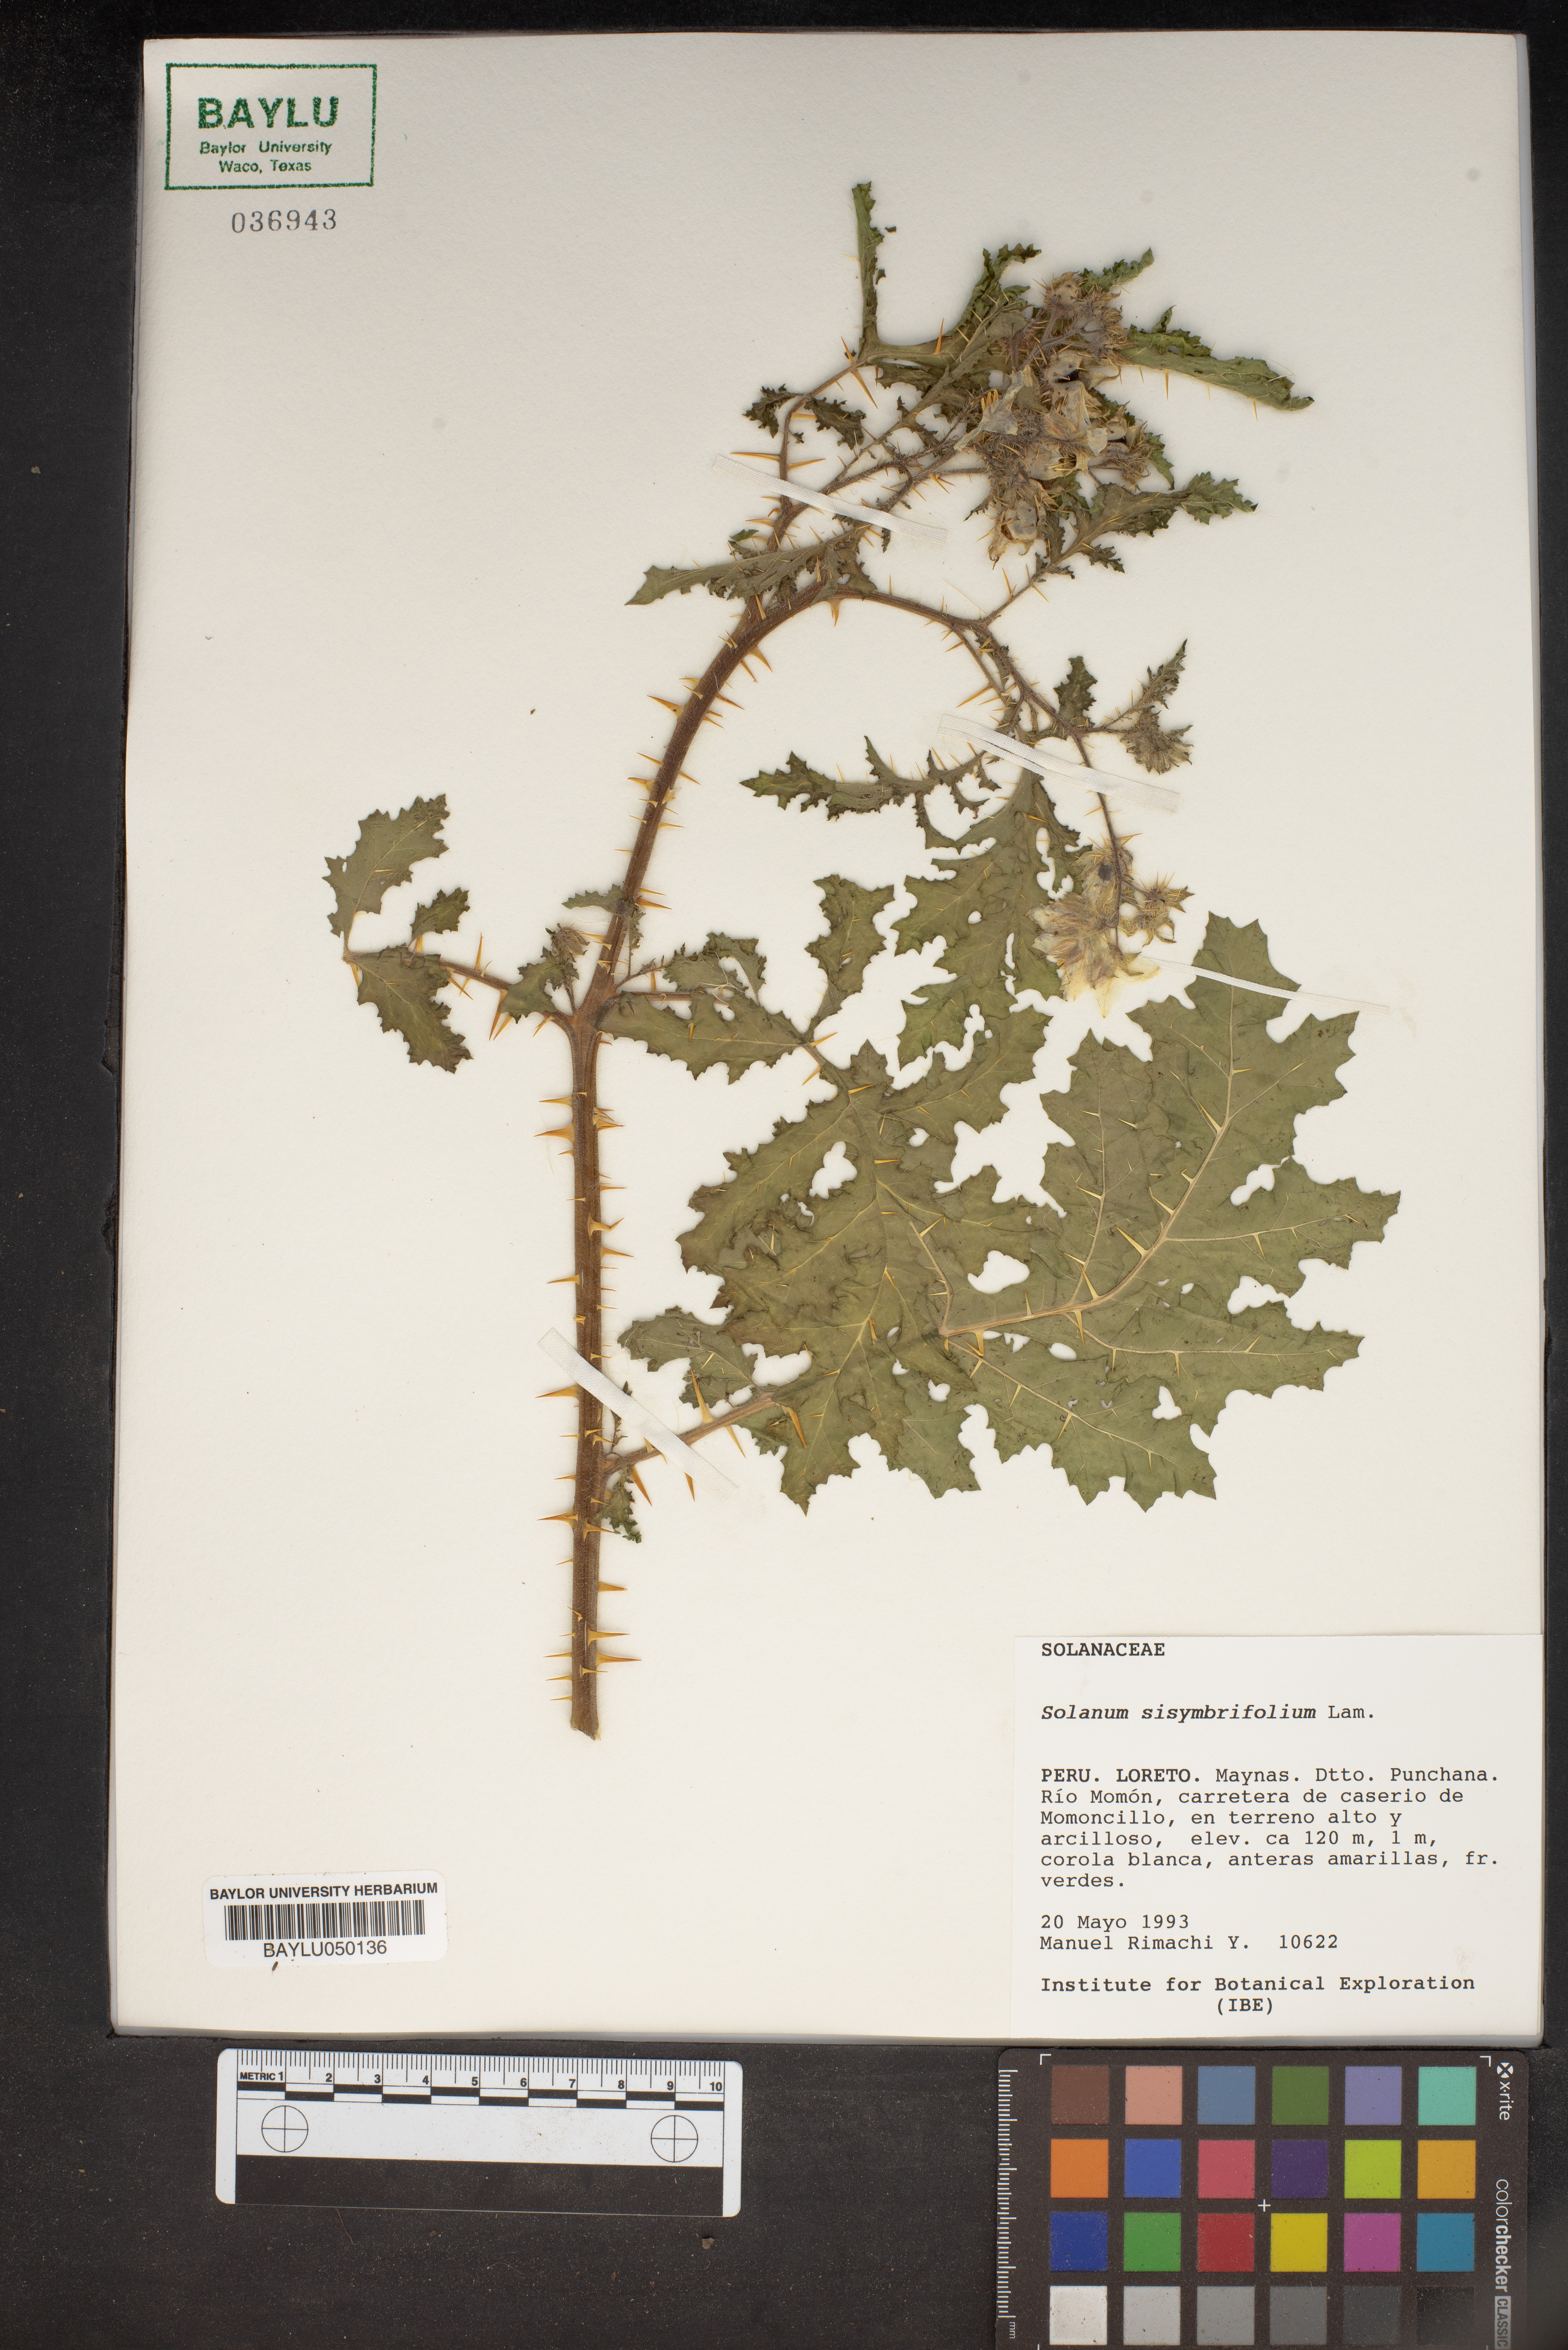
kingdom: Plantae
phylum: Tracheophyta
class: Magnoliopsida
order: Solanales
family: Solanaceae
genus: Solanum
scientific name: Solanum sisymbriifolium
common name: Red buffalo-bur
